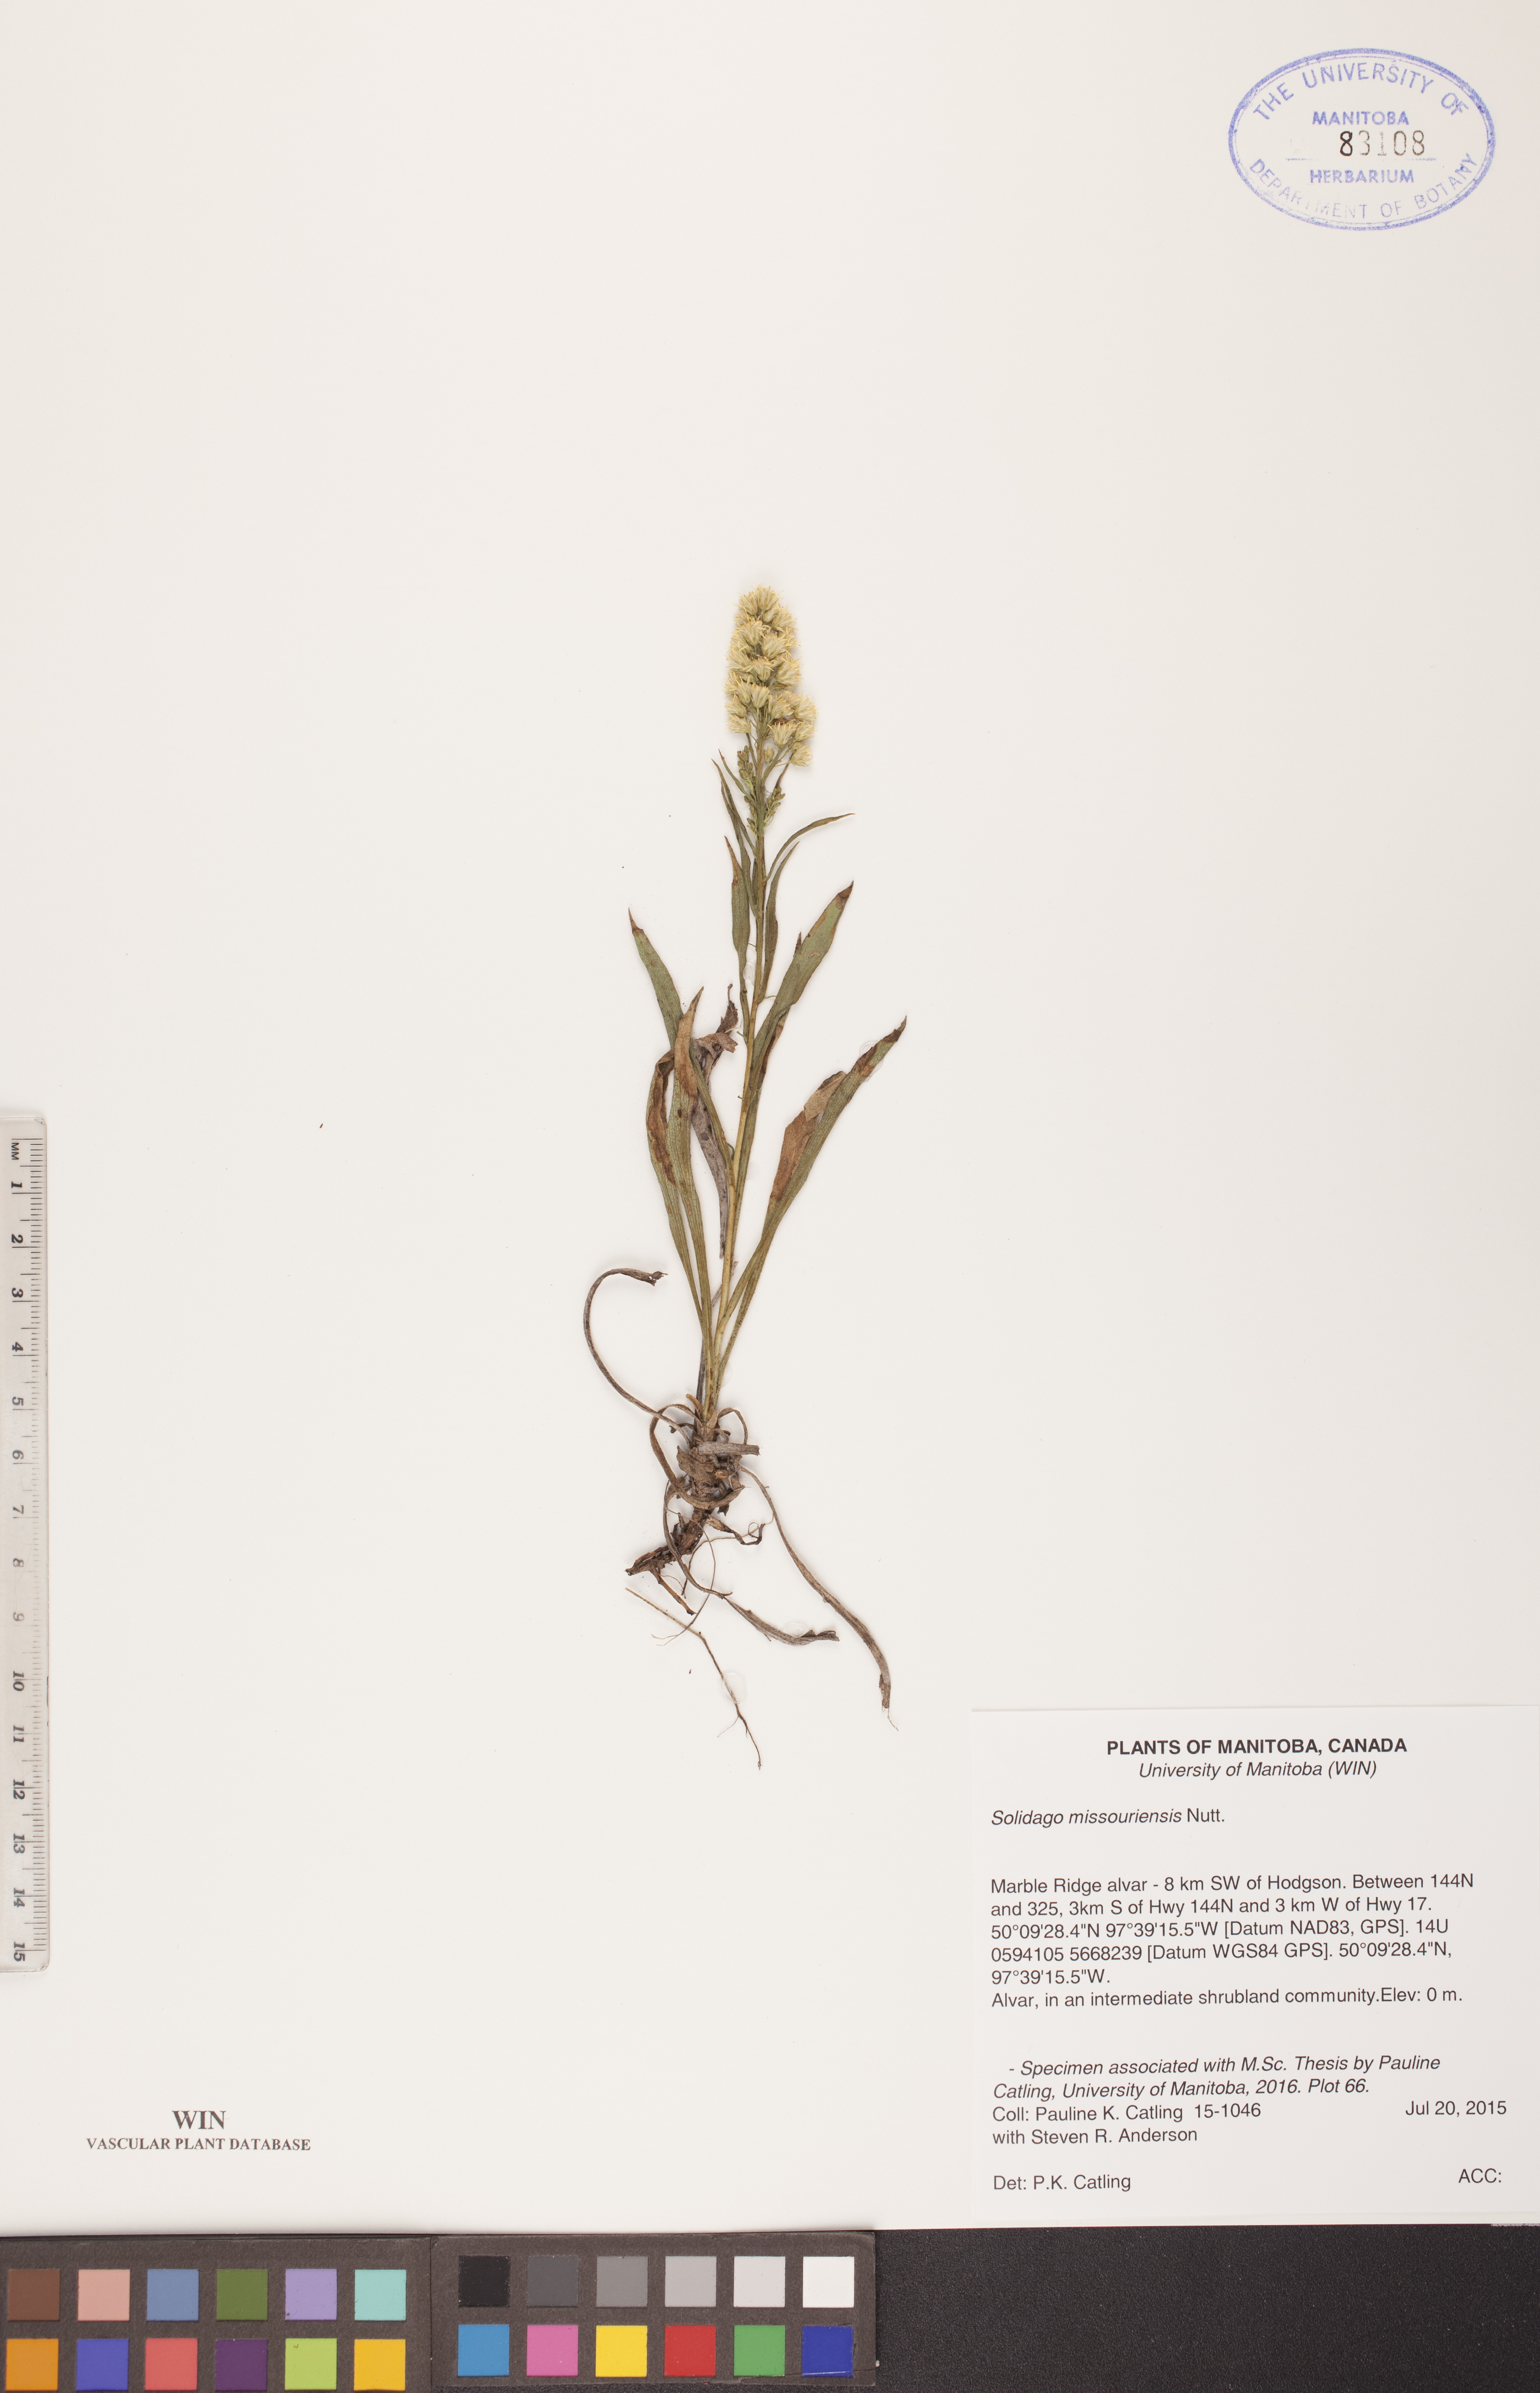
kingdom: Plantae
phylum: Tracheophyta
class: Magnoliopsida
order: Asterales
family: Asteraceae
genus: Solidago
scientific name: Solidago missouriensis
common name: Prairie goldenrod
